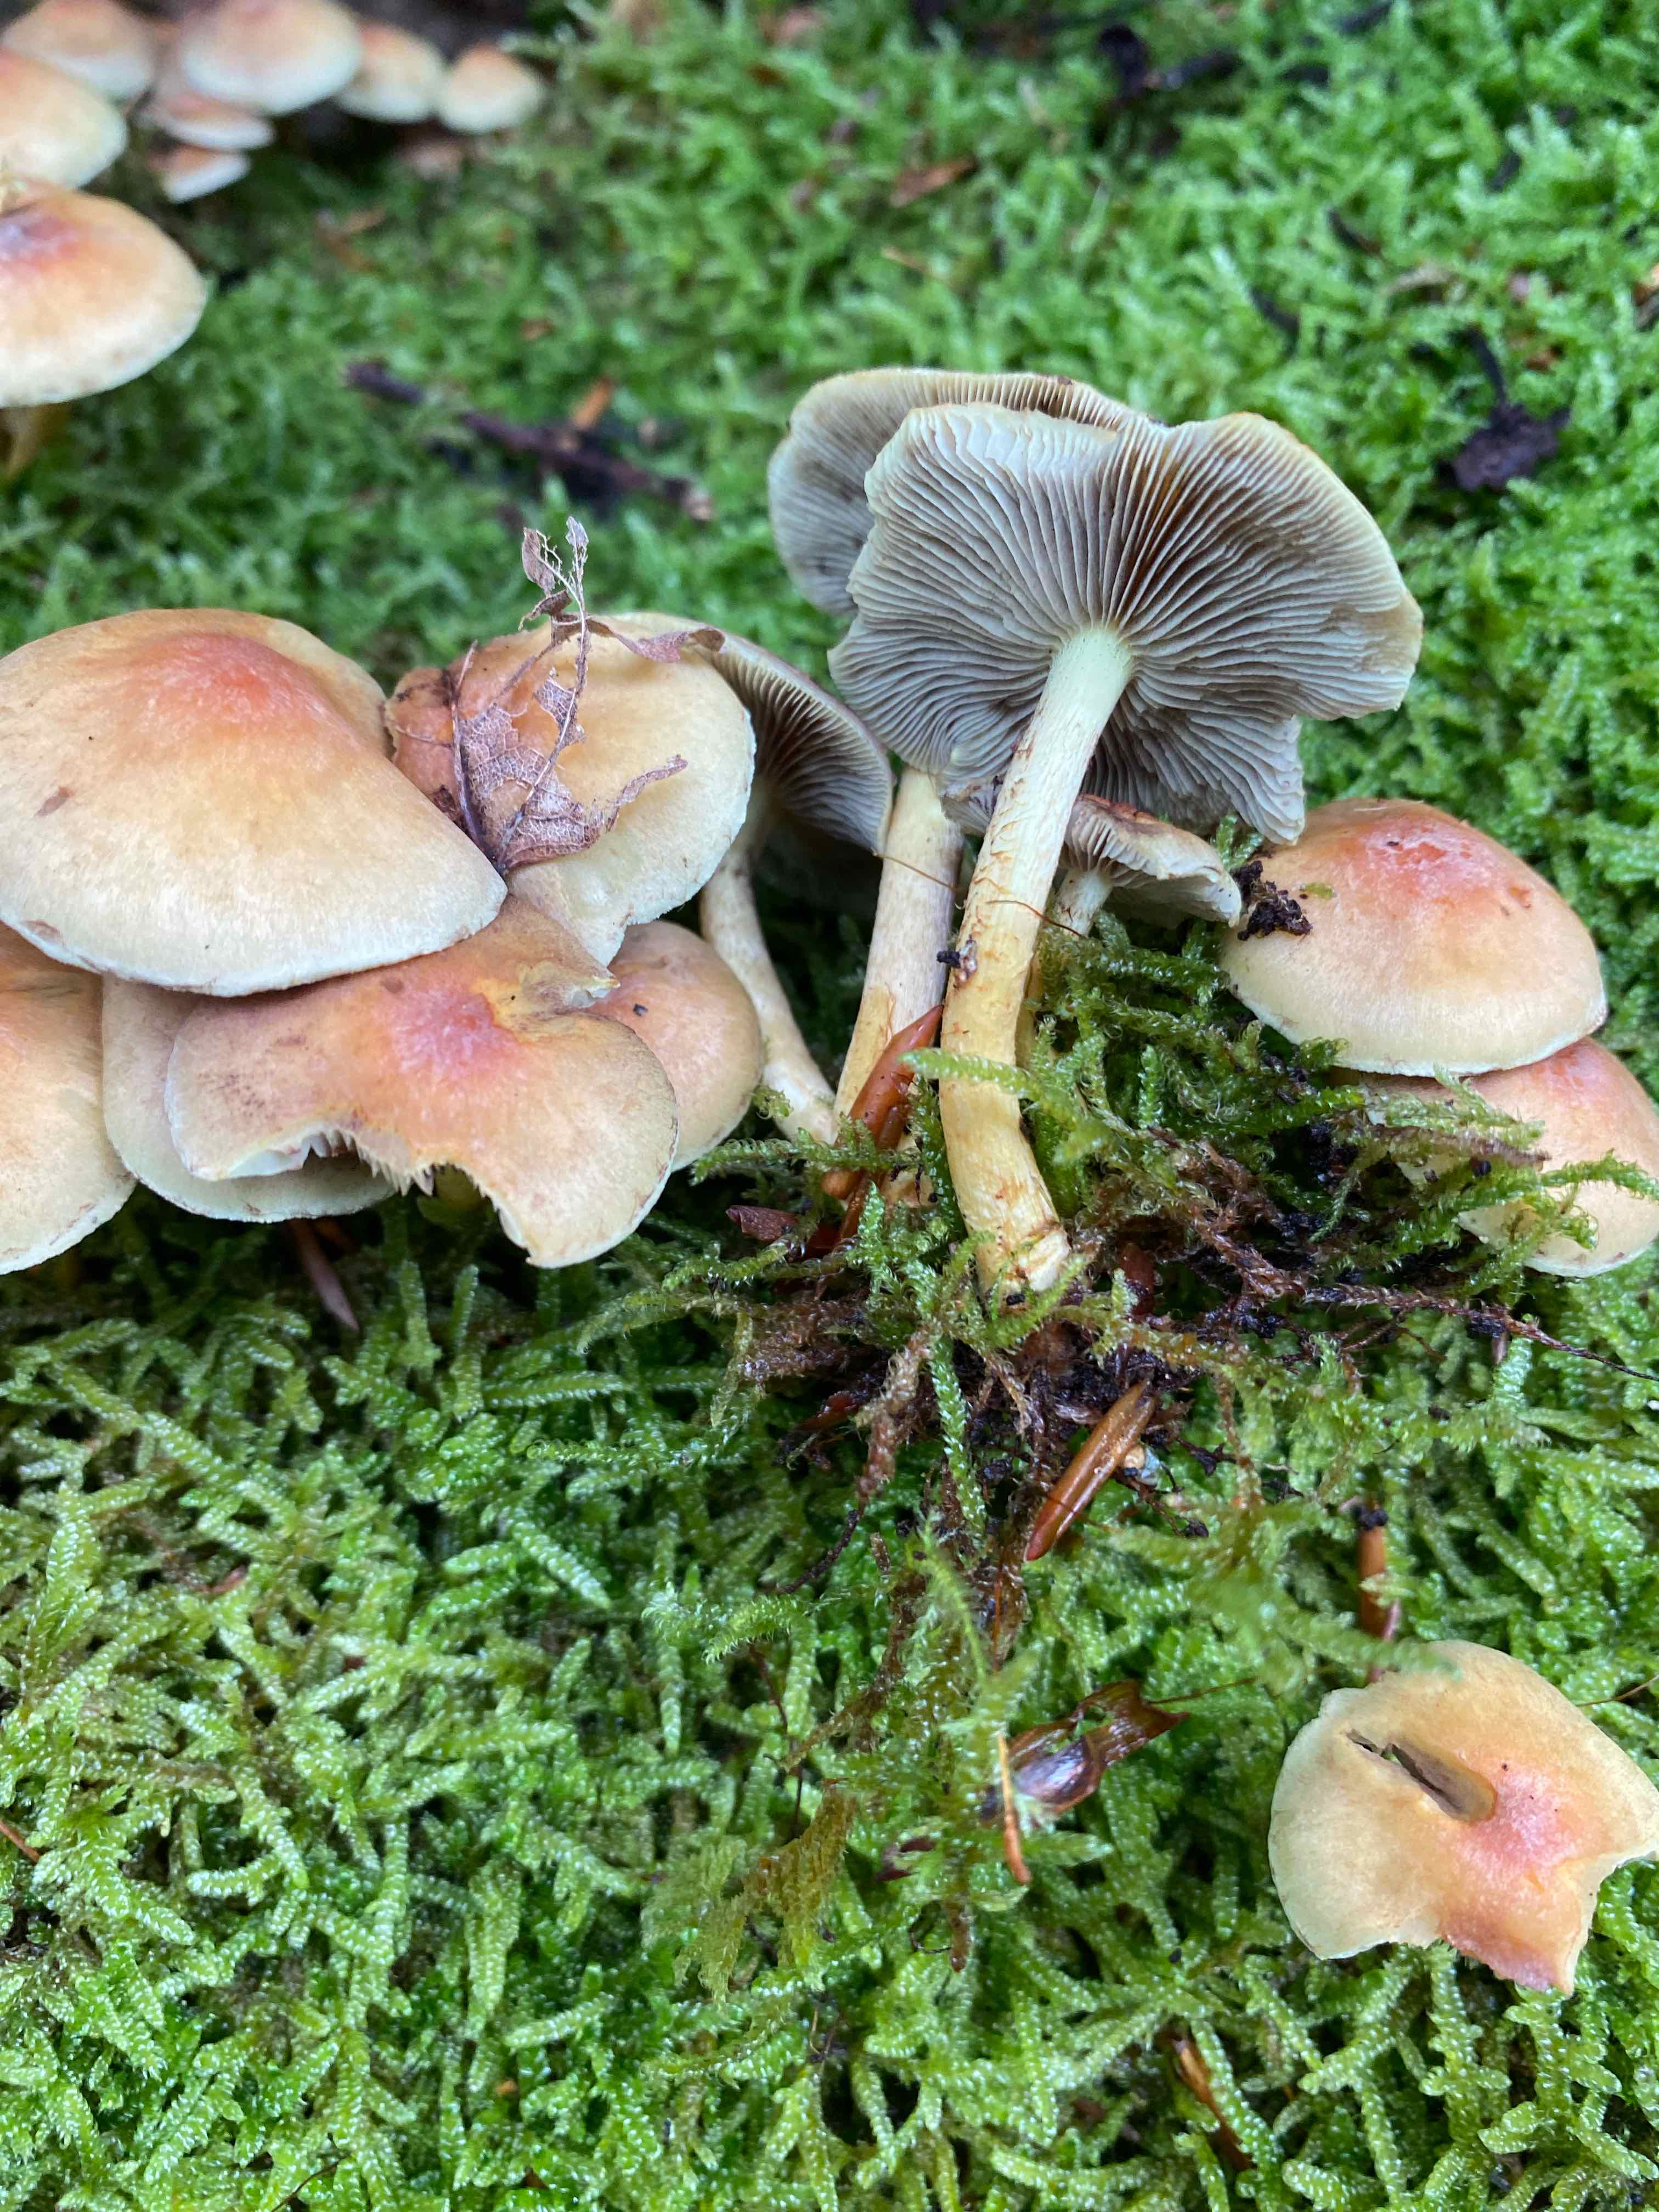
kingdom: Fungi
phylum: Basidiomycota
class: Agaricomycetes
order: Agaricales
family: Strophariaceae
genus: Hypholoma
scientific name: Hypholoma fasciculare
